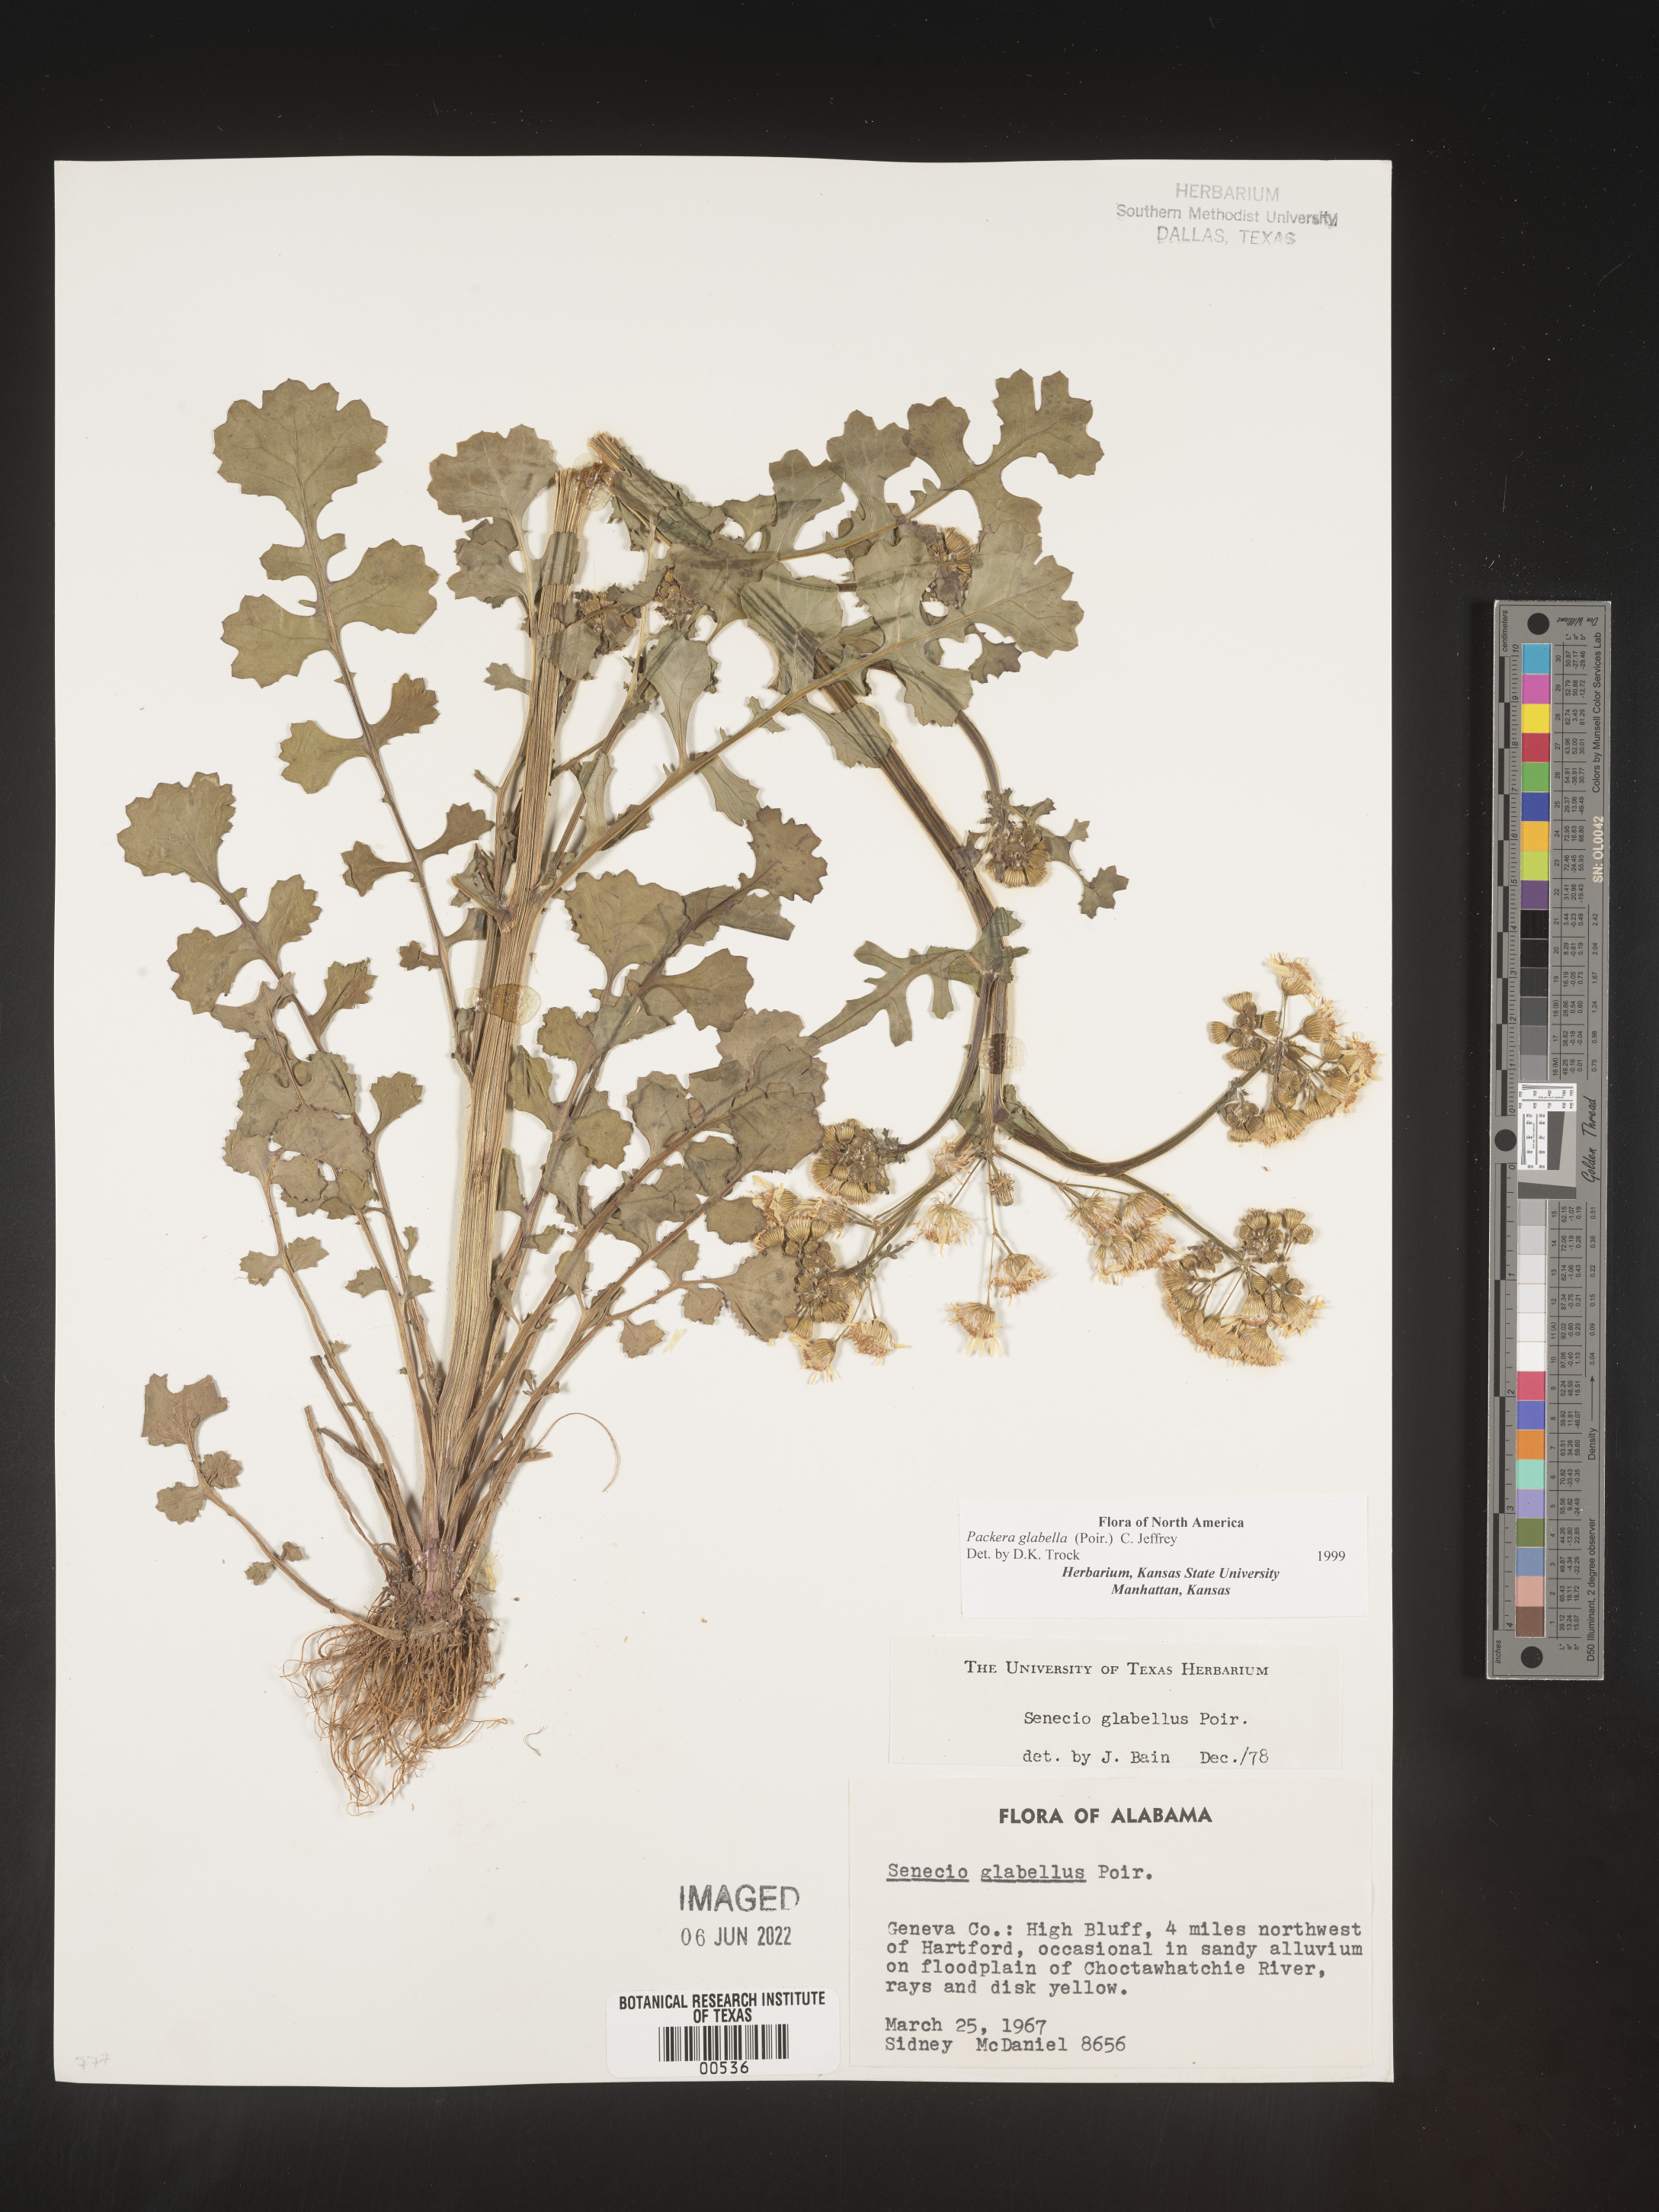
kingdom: Plantae
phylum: Tracheophyta
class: Magnoliopsida
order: Asterales
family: Asteraceae
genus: Packera
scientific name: Packera glabella
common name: Butterweed
